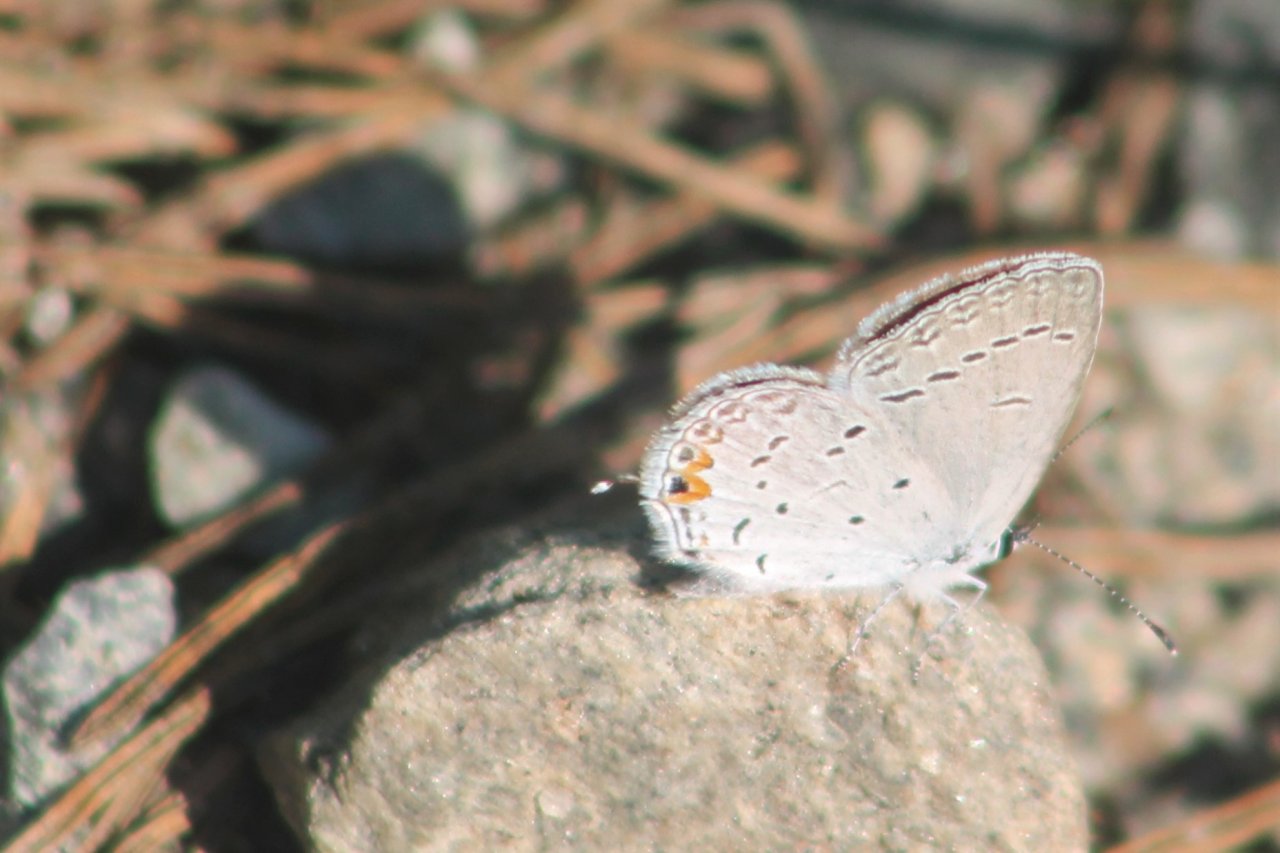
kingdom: Animalia
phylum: Arthropoda
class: Insecta
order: Lepidoptera
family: Lycaenidae
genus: Elkalyce
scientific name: Elkalyce comyntas
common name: Eastern Tailed-Blue
